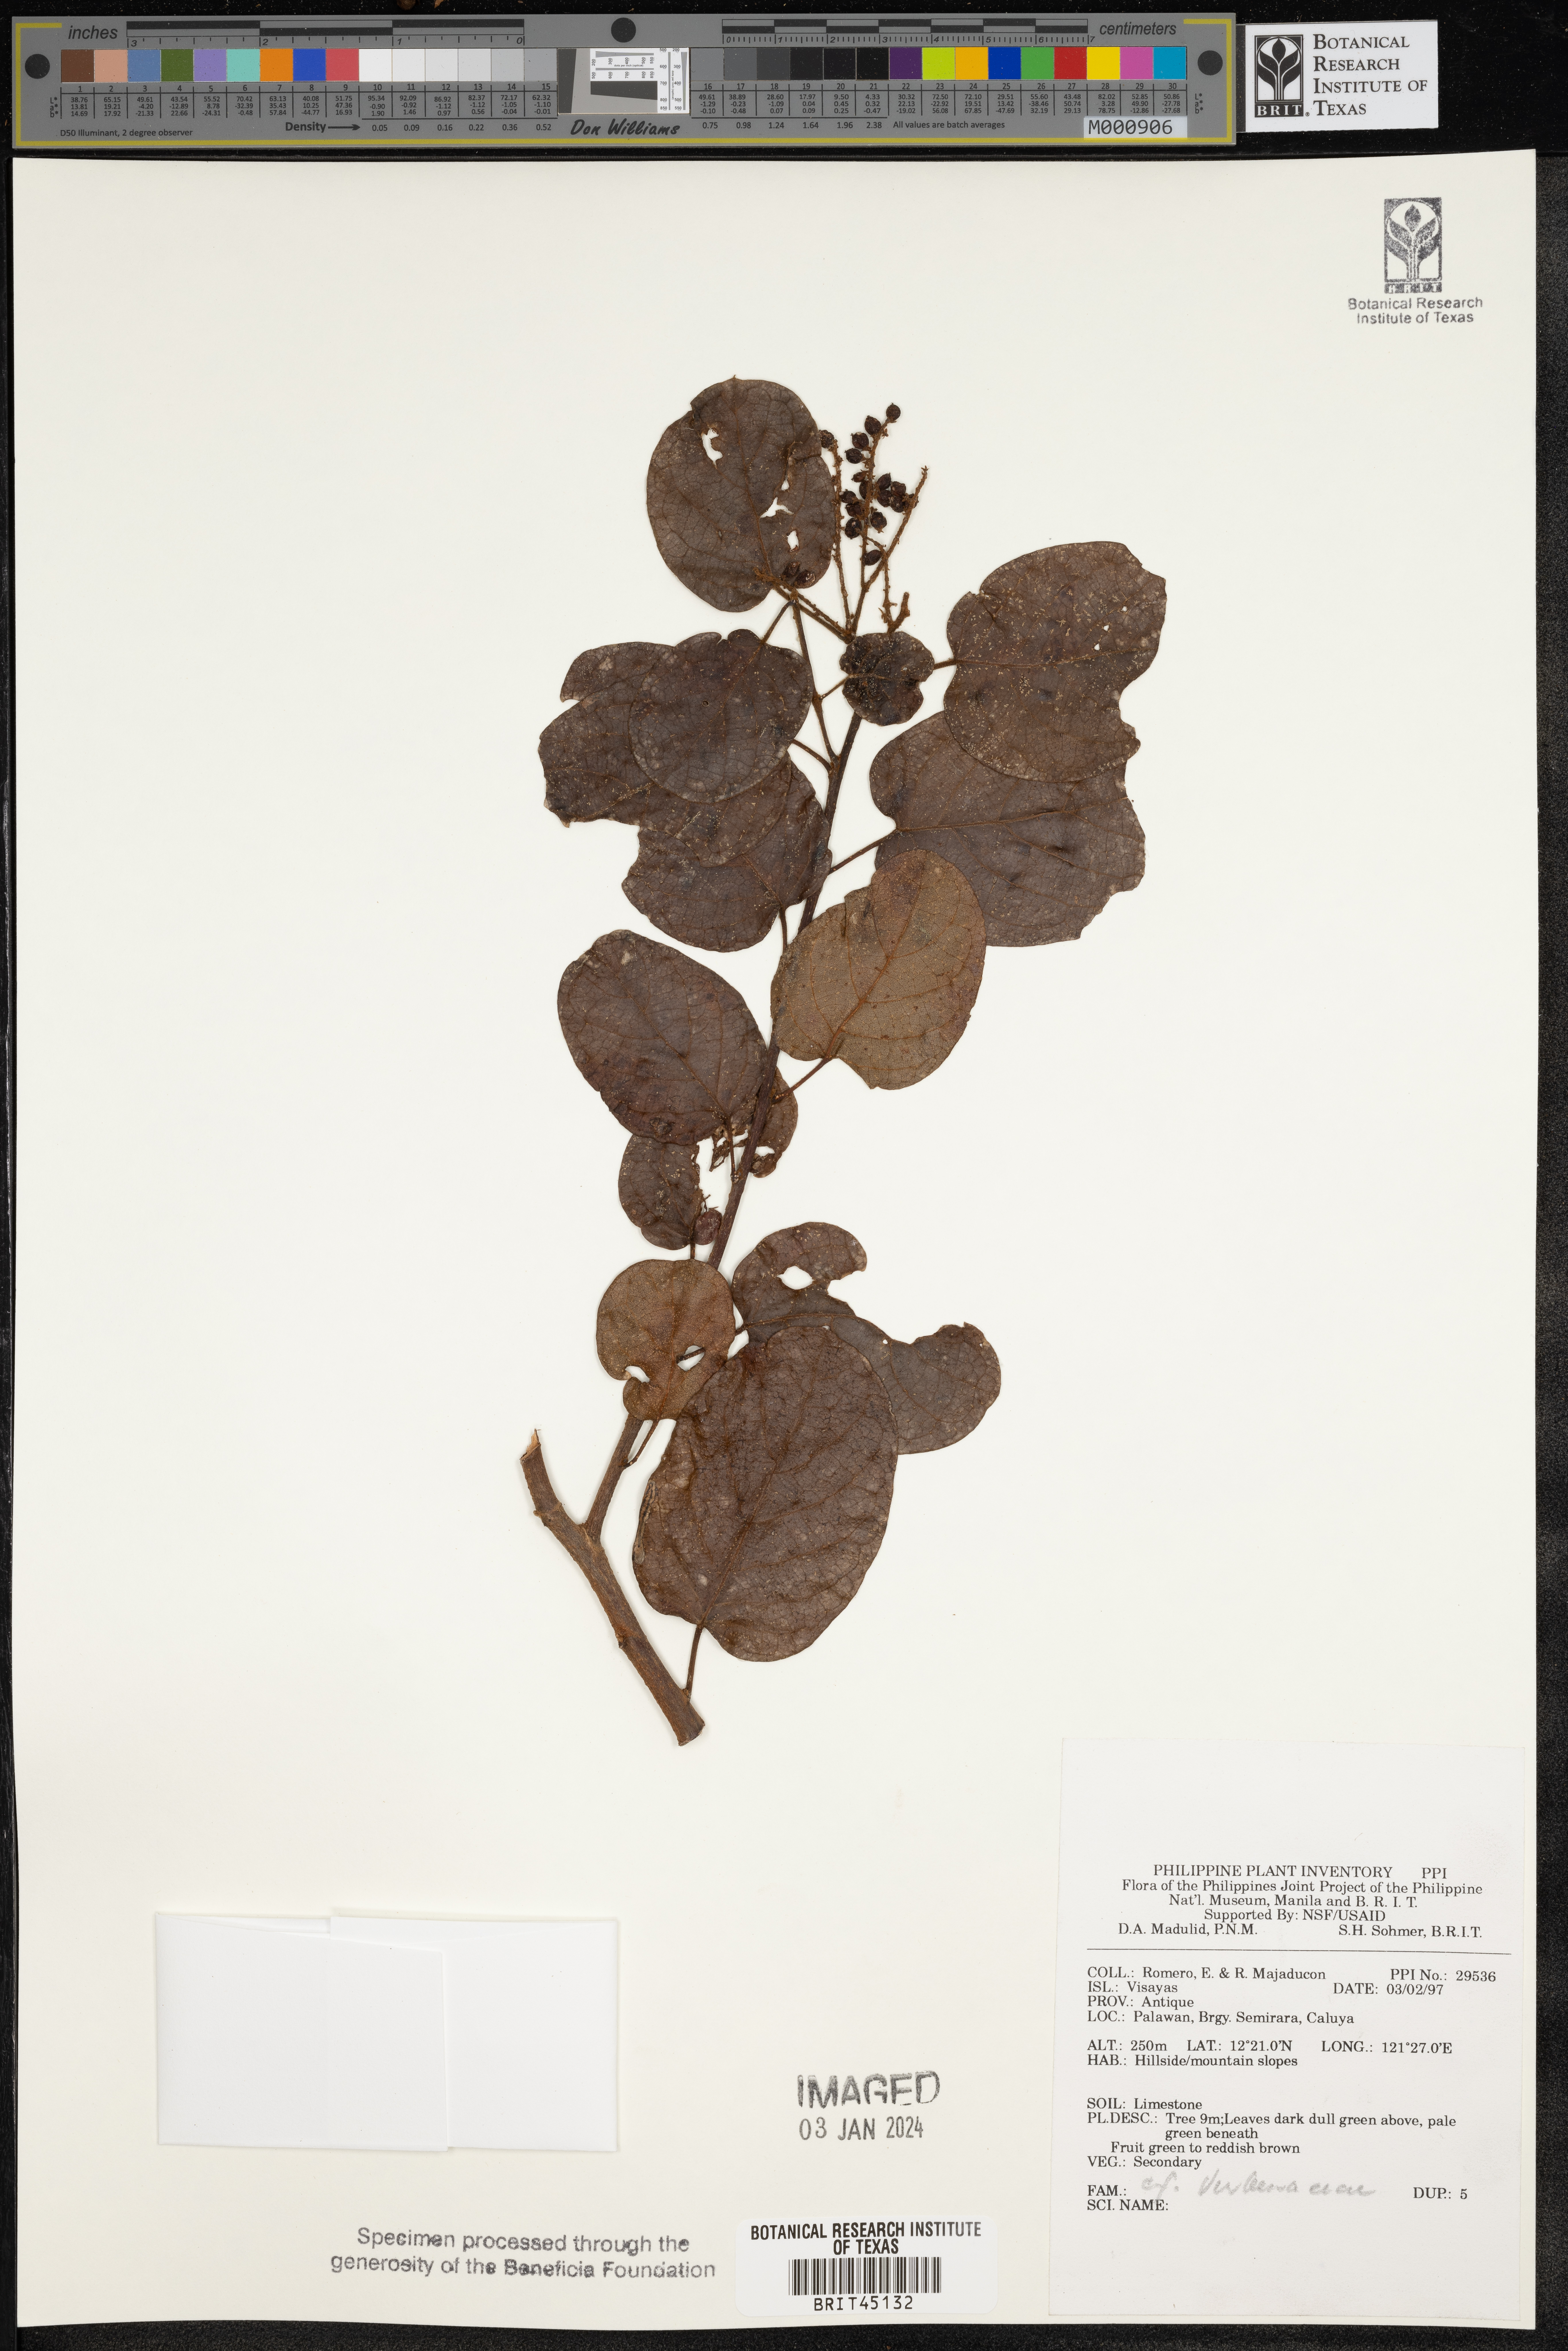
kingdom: Plantae
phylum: Tracheophyta
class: Magnoliopsida
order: Lamiales
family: Verbenaceae
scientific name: Verbenaceae
